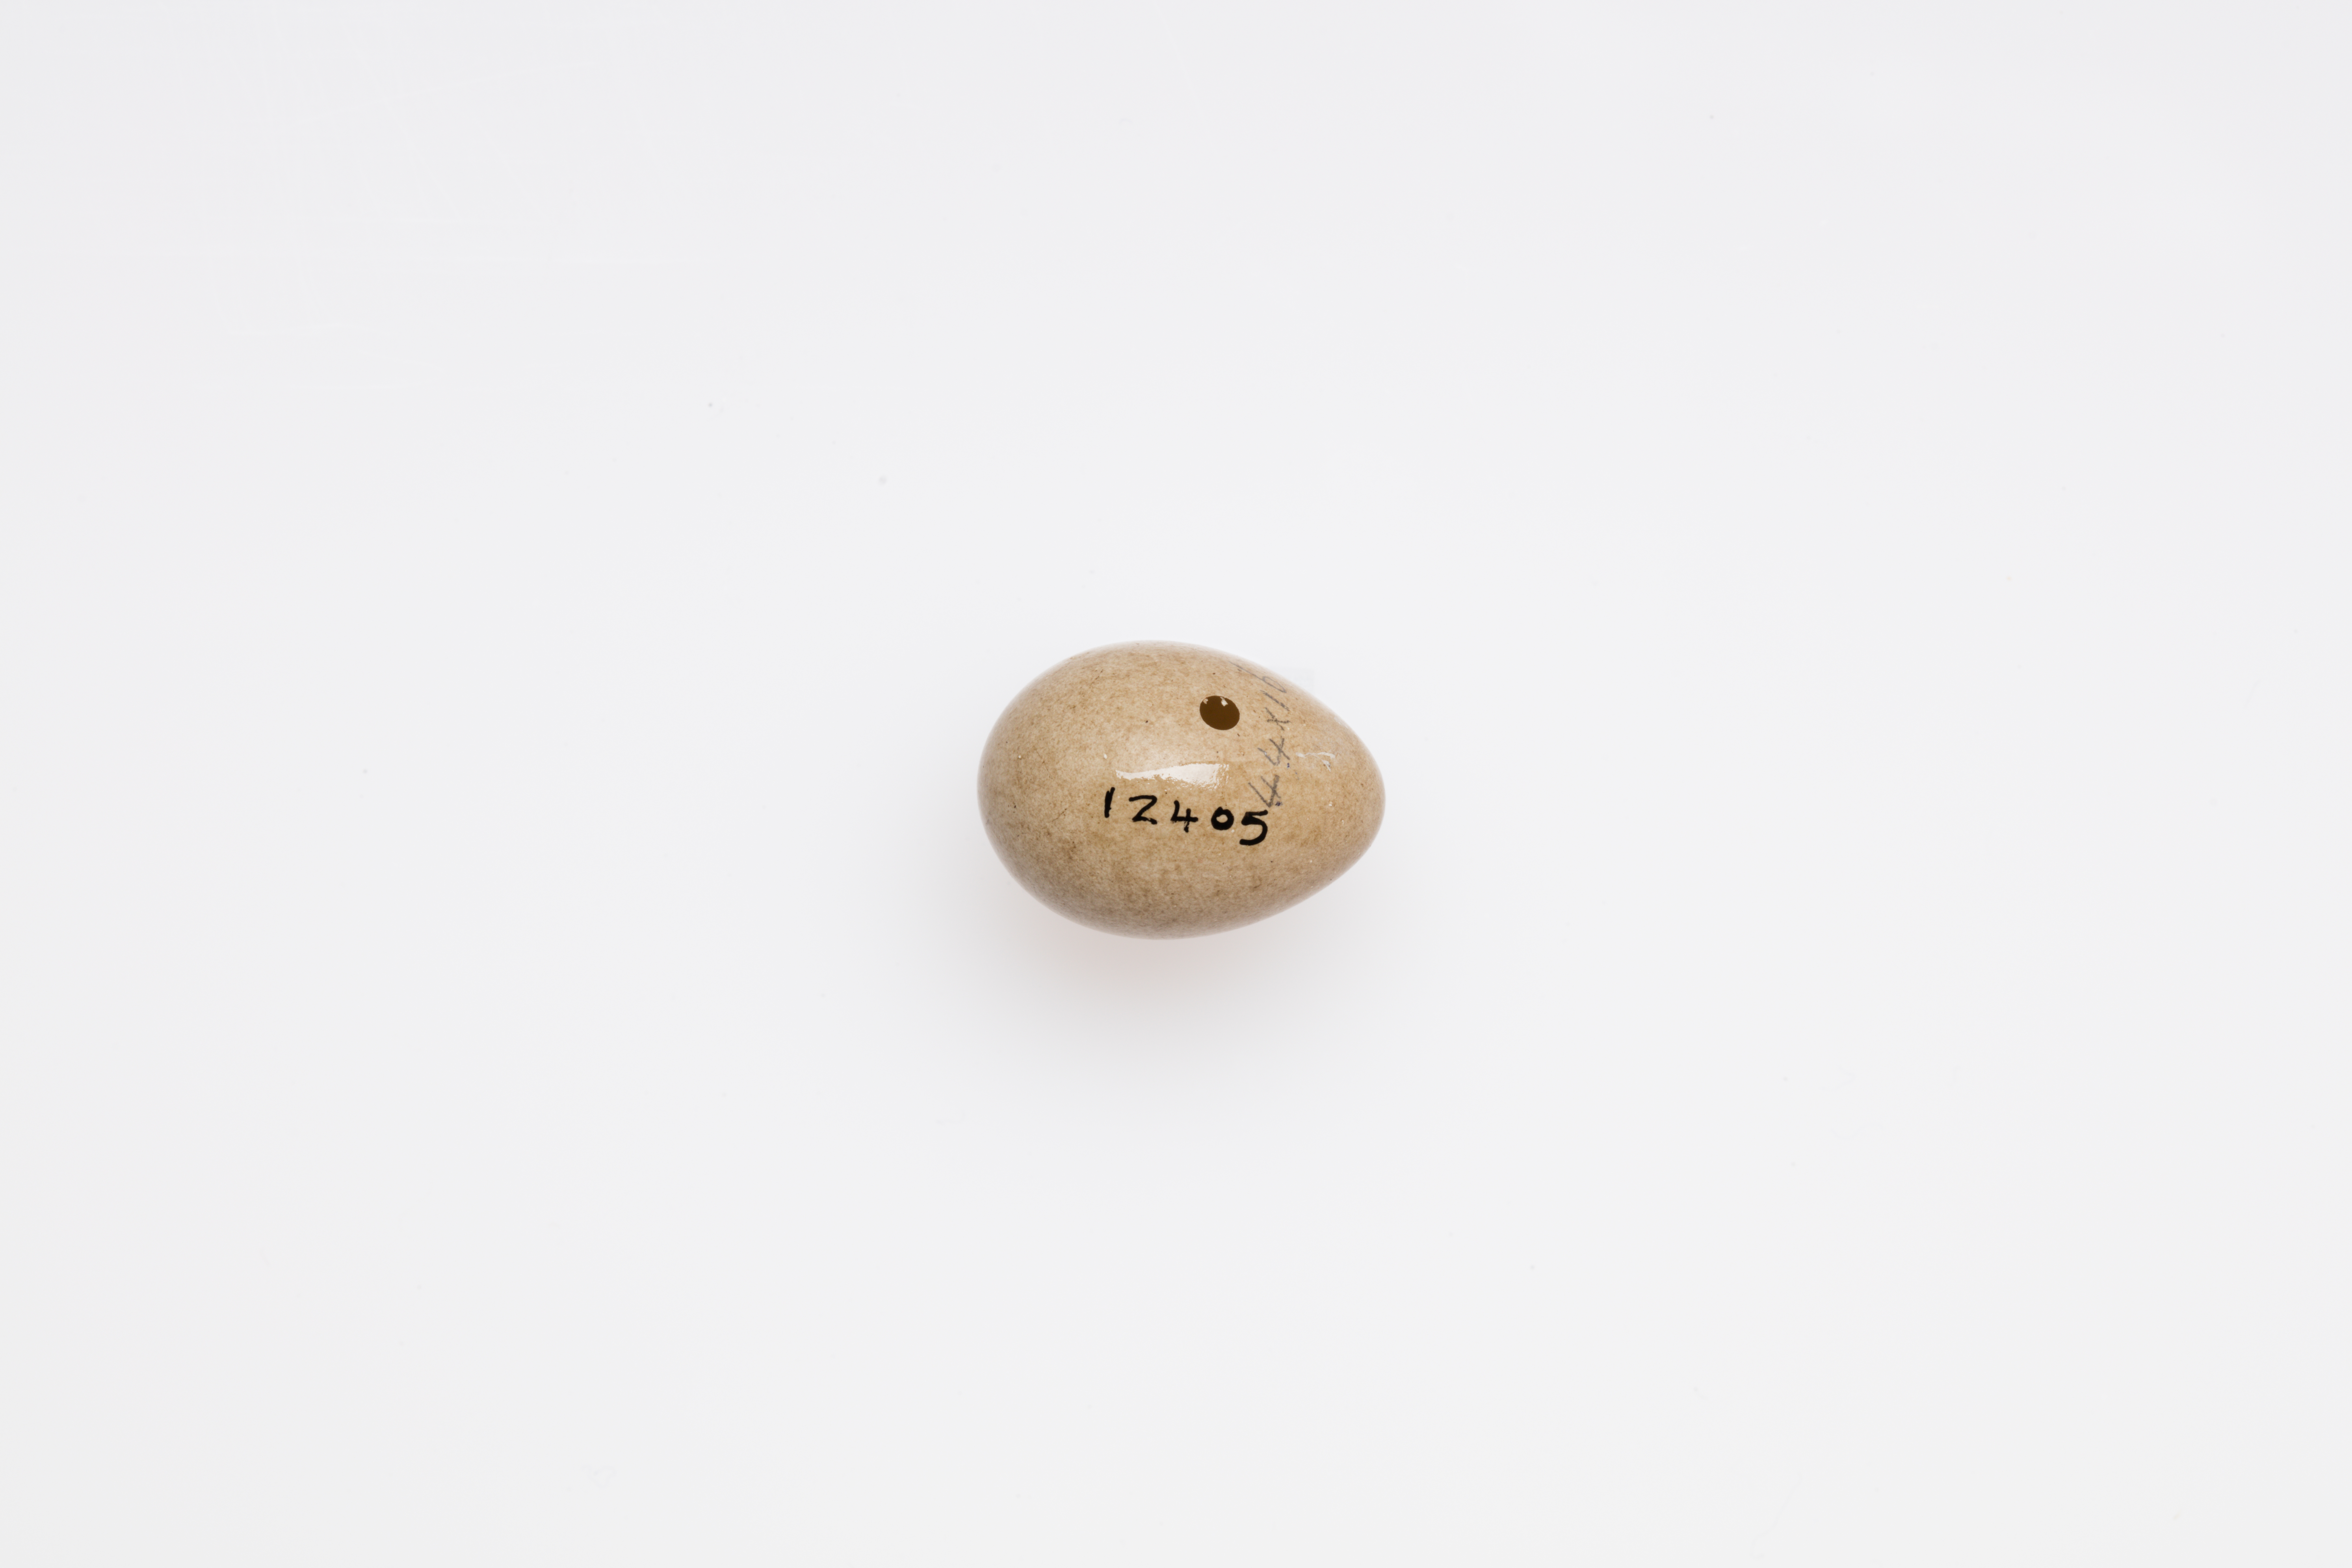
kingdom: Animalia
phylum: Chordata
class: Aves
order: Passeriformes
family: Acrocephalidae
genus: Acrocephalus
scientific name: Acrocephalus schoenobaenus
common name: Sedge warbler
